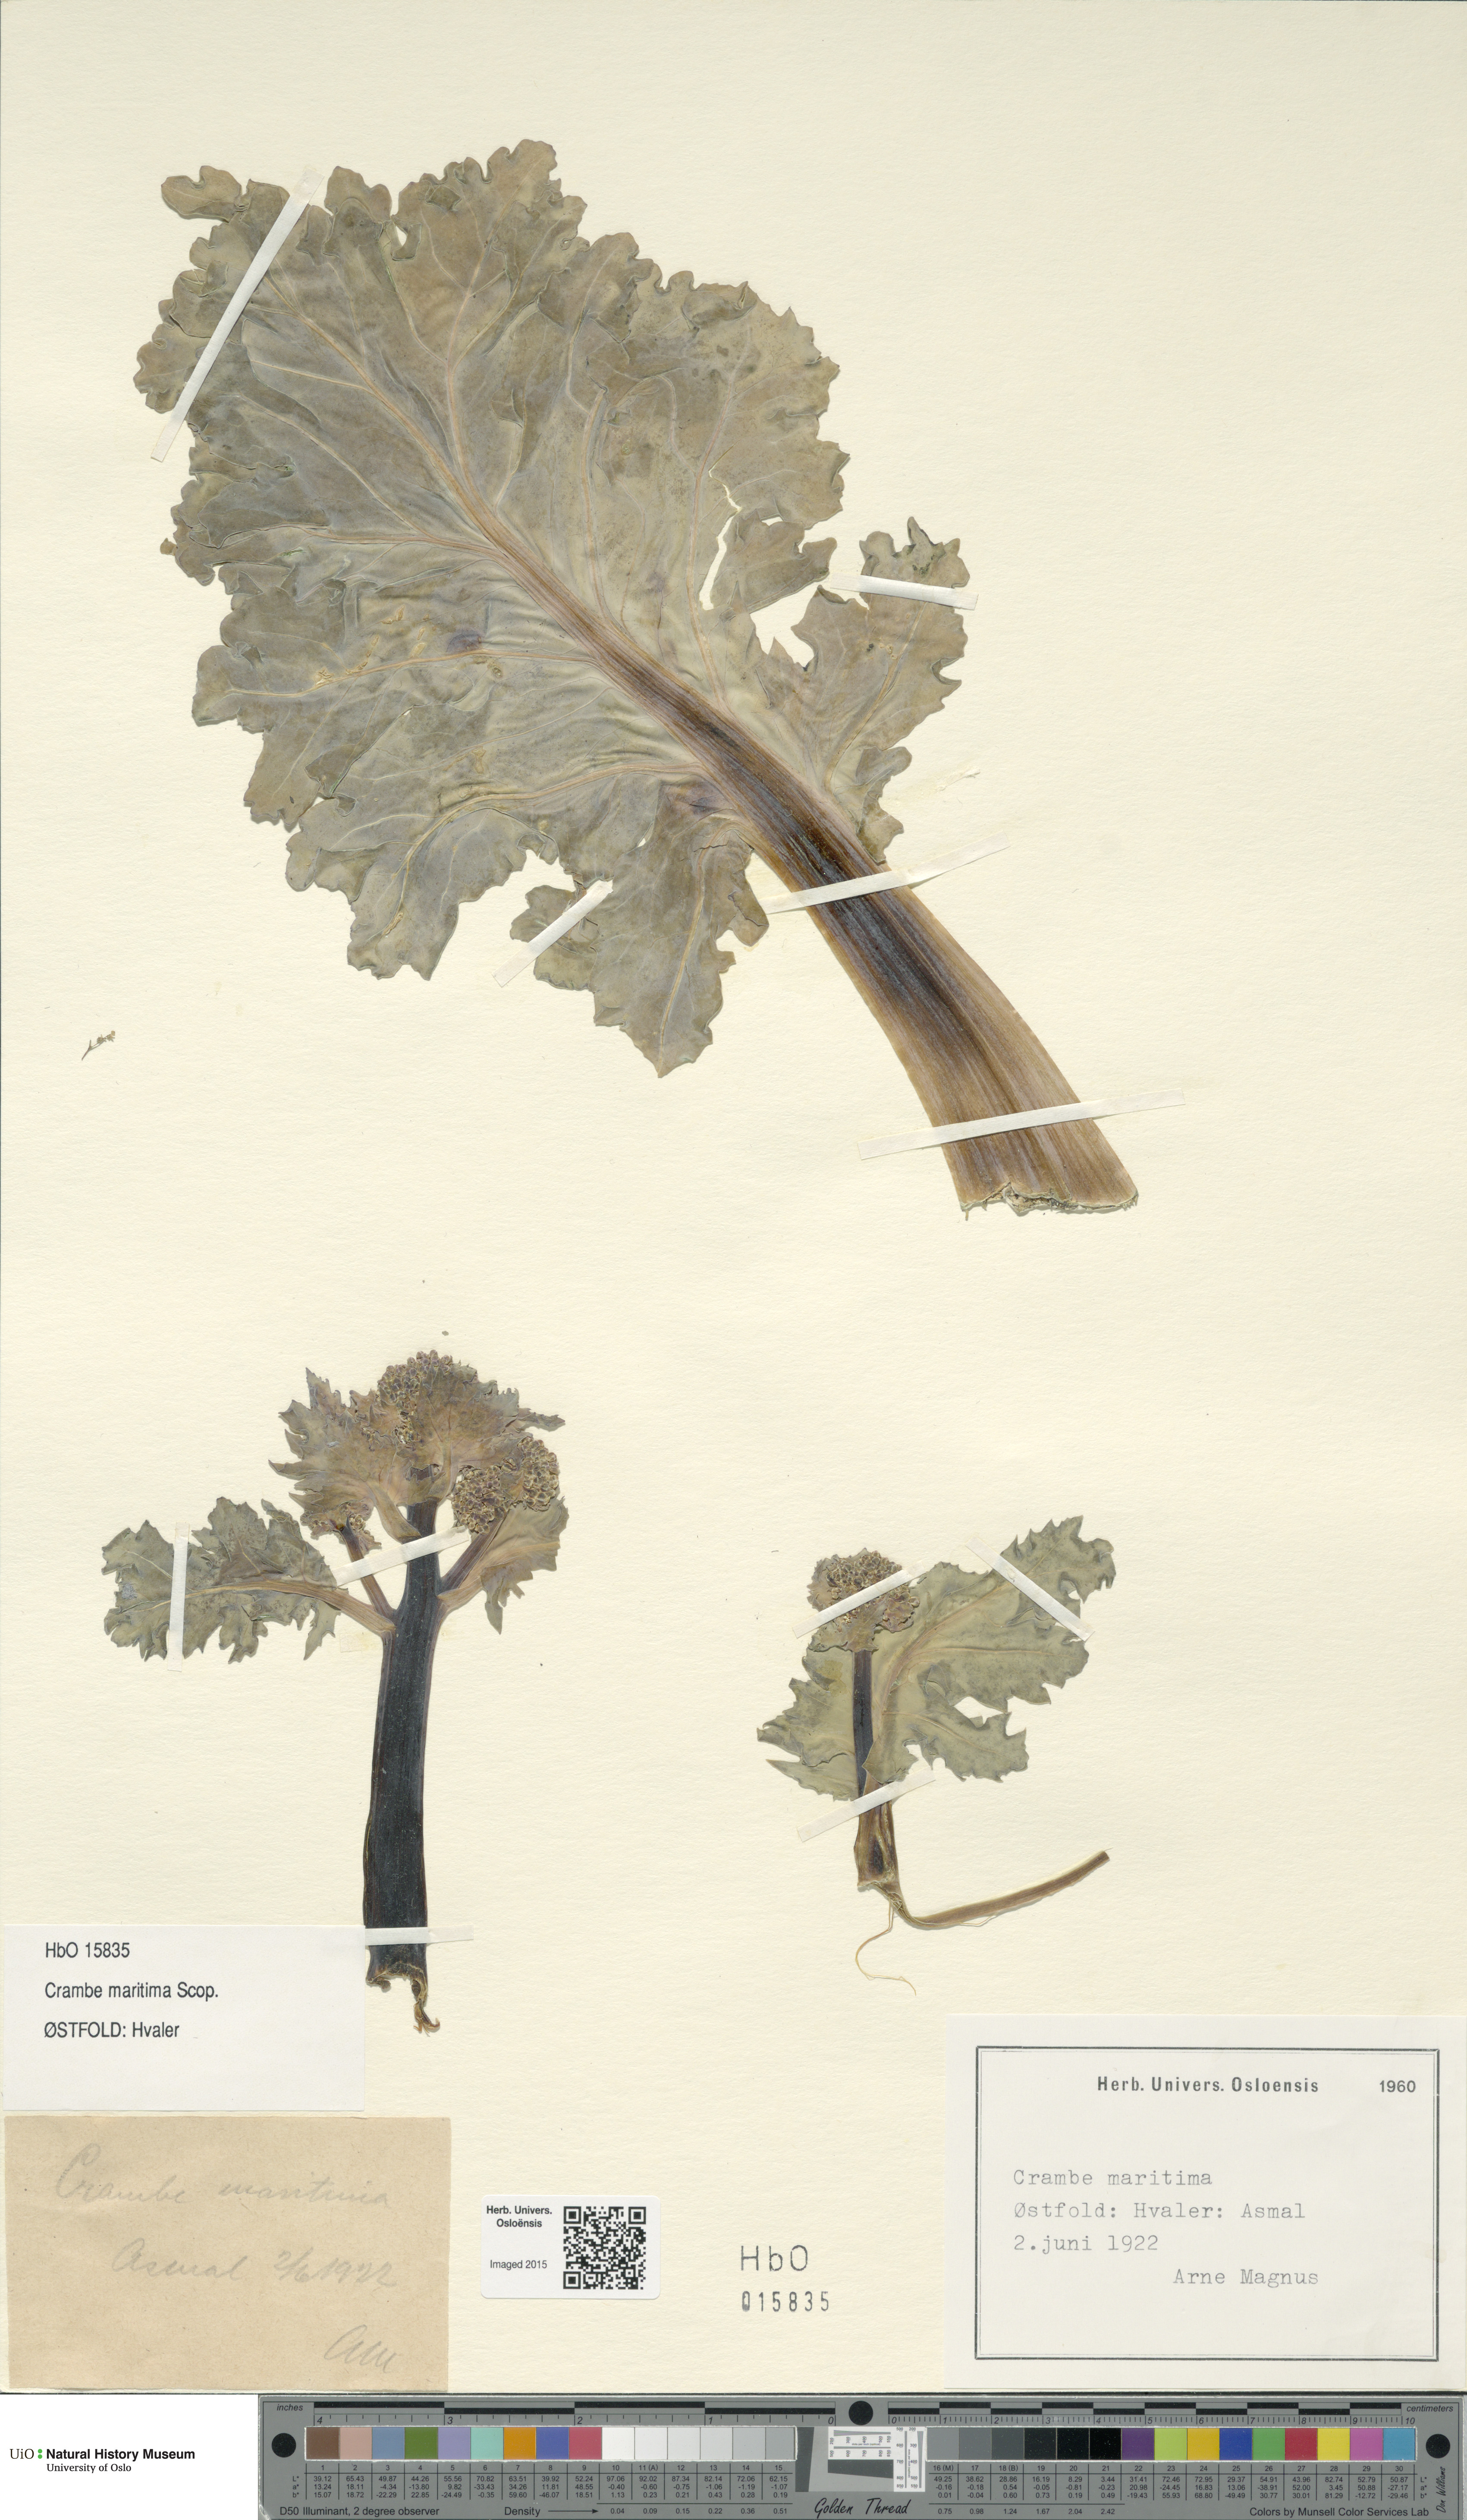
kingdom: Plantae
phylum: Tracheophyta
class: Magnoliopsida
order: Brassicales
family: Brassicaceae
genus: Crambe
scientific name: Crambe maritima
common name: Sea-kale
